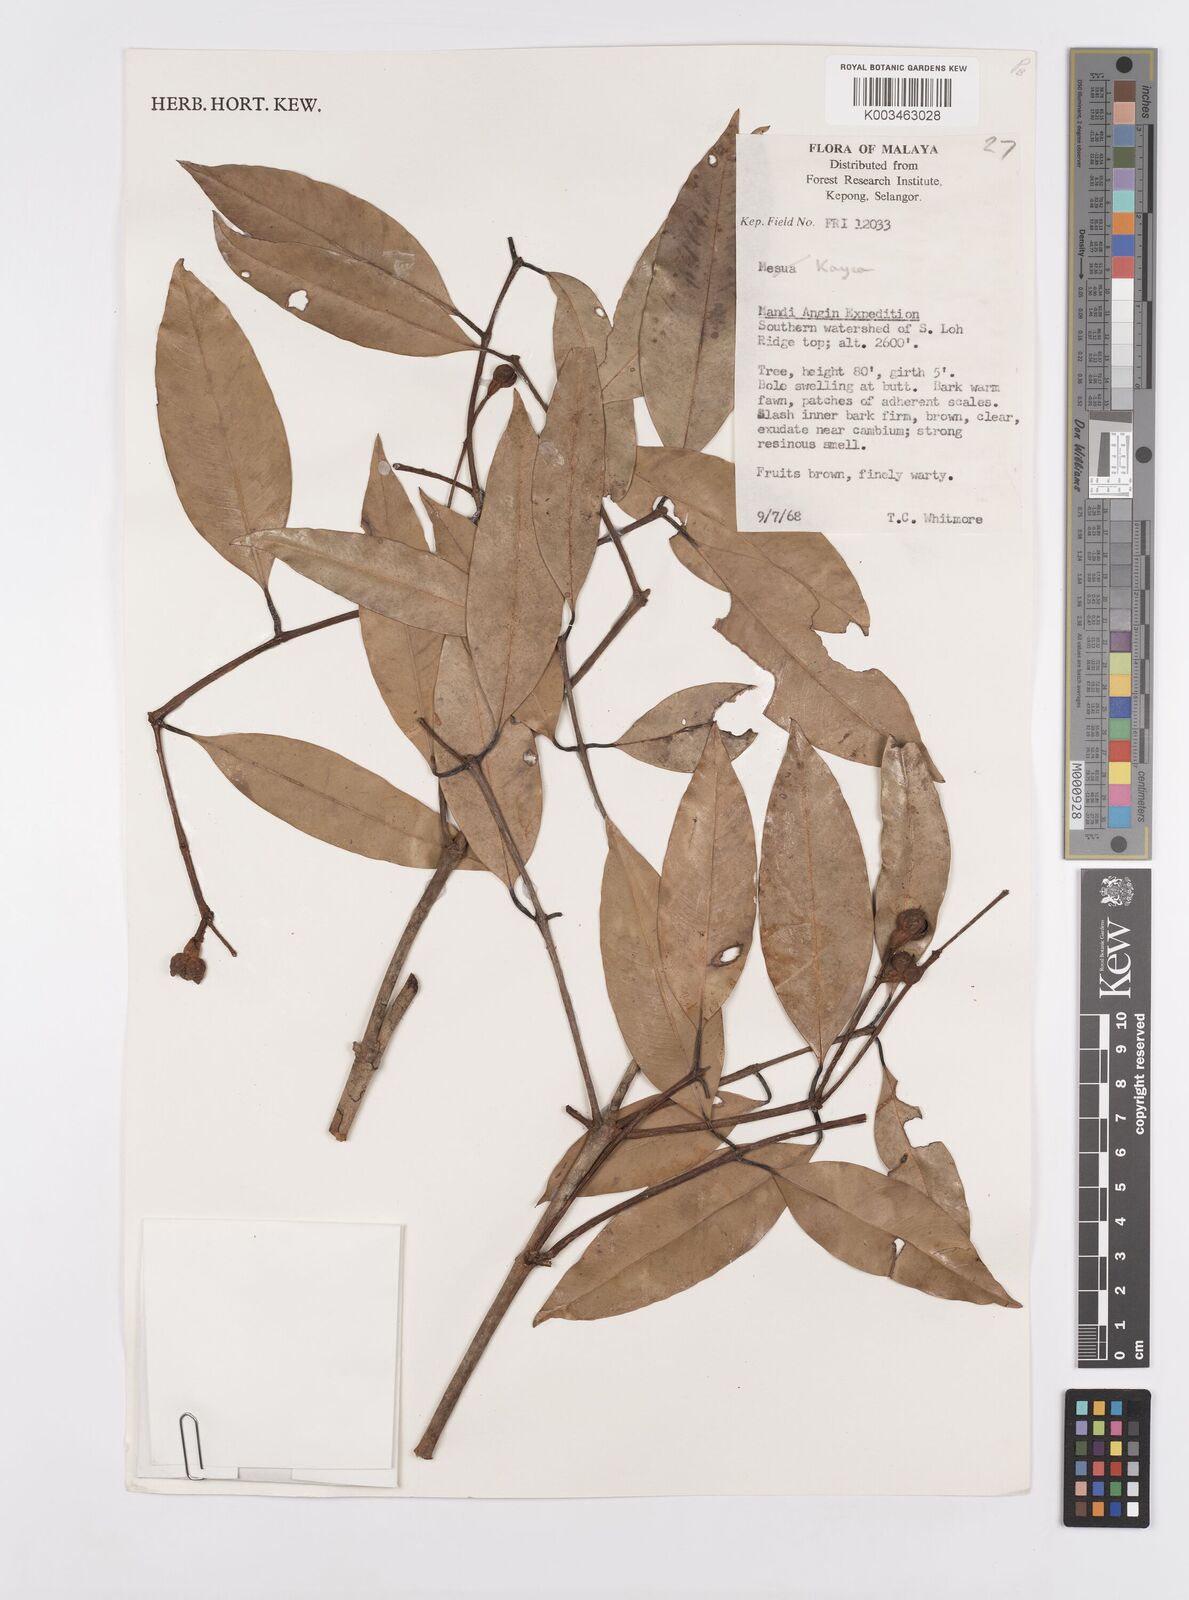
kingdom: Plantae
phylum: Tracheophyta
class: Magnoliopsida
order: Malpighiales
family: Calophyllaceae
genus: Kayea
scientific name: Kayea
